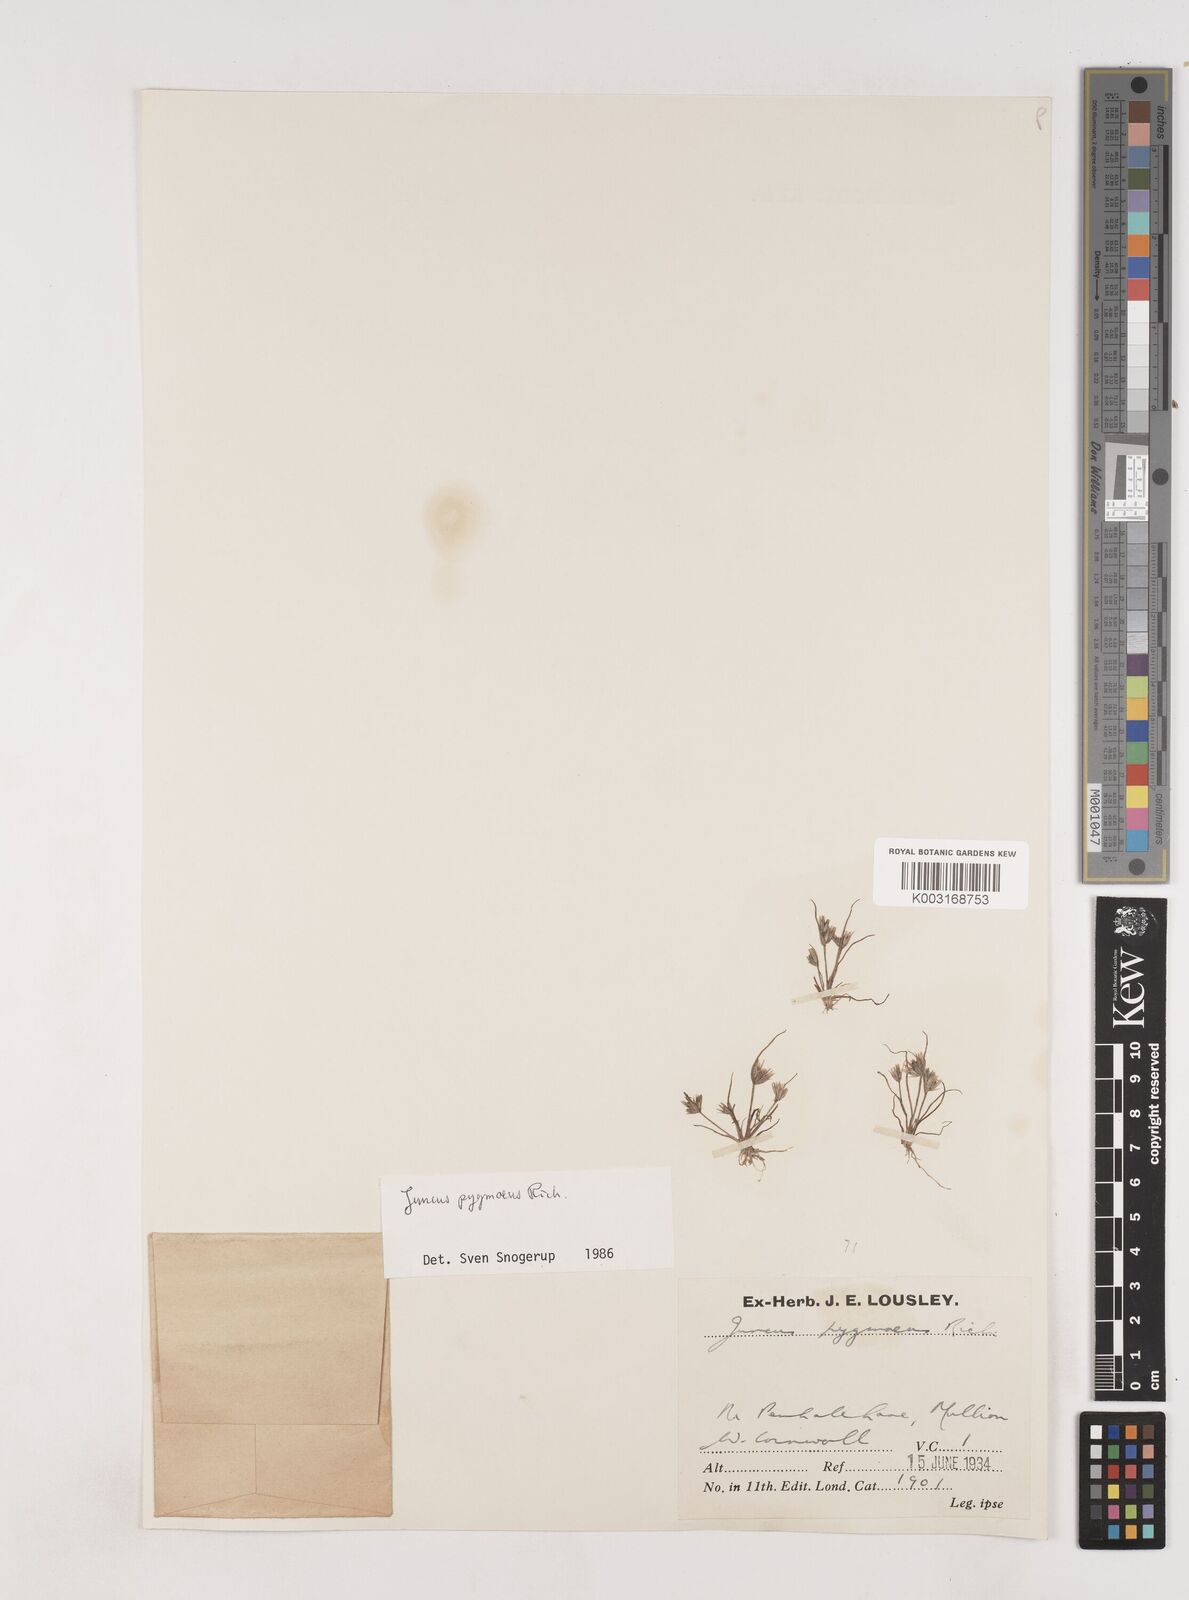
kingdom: Plantae
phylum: Tracheophyta
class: Liliopsida
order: Poales
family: Juncaceae
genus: Juncus
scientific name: Juncus pygmaeus
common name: Pigmy rush
